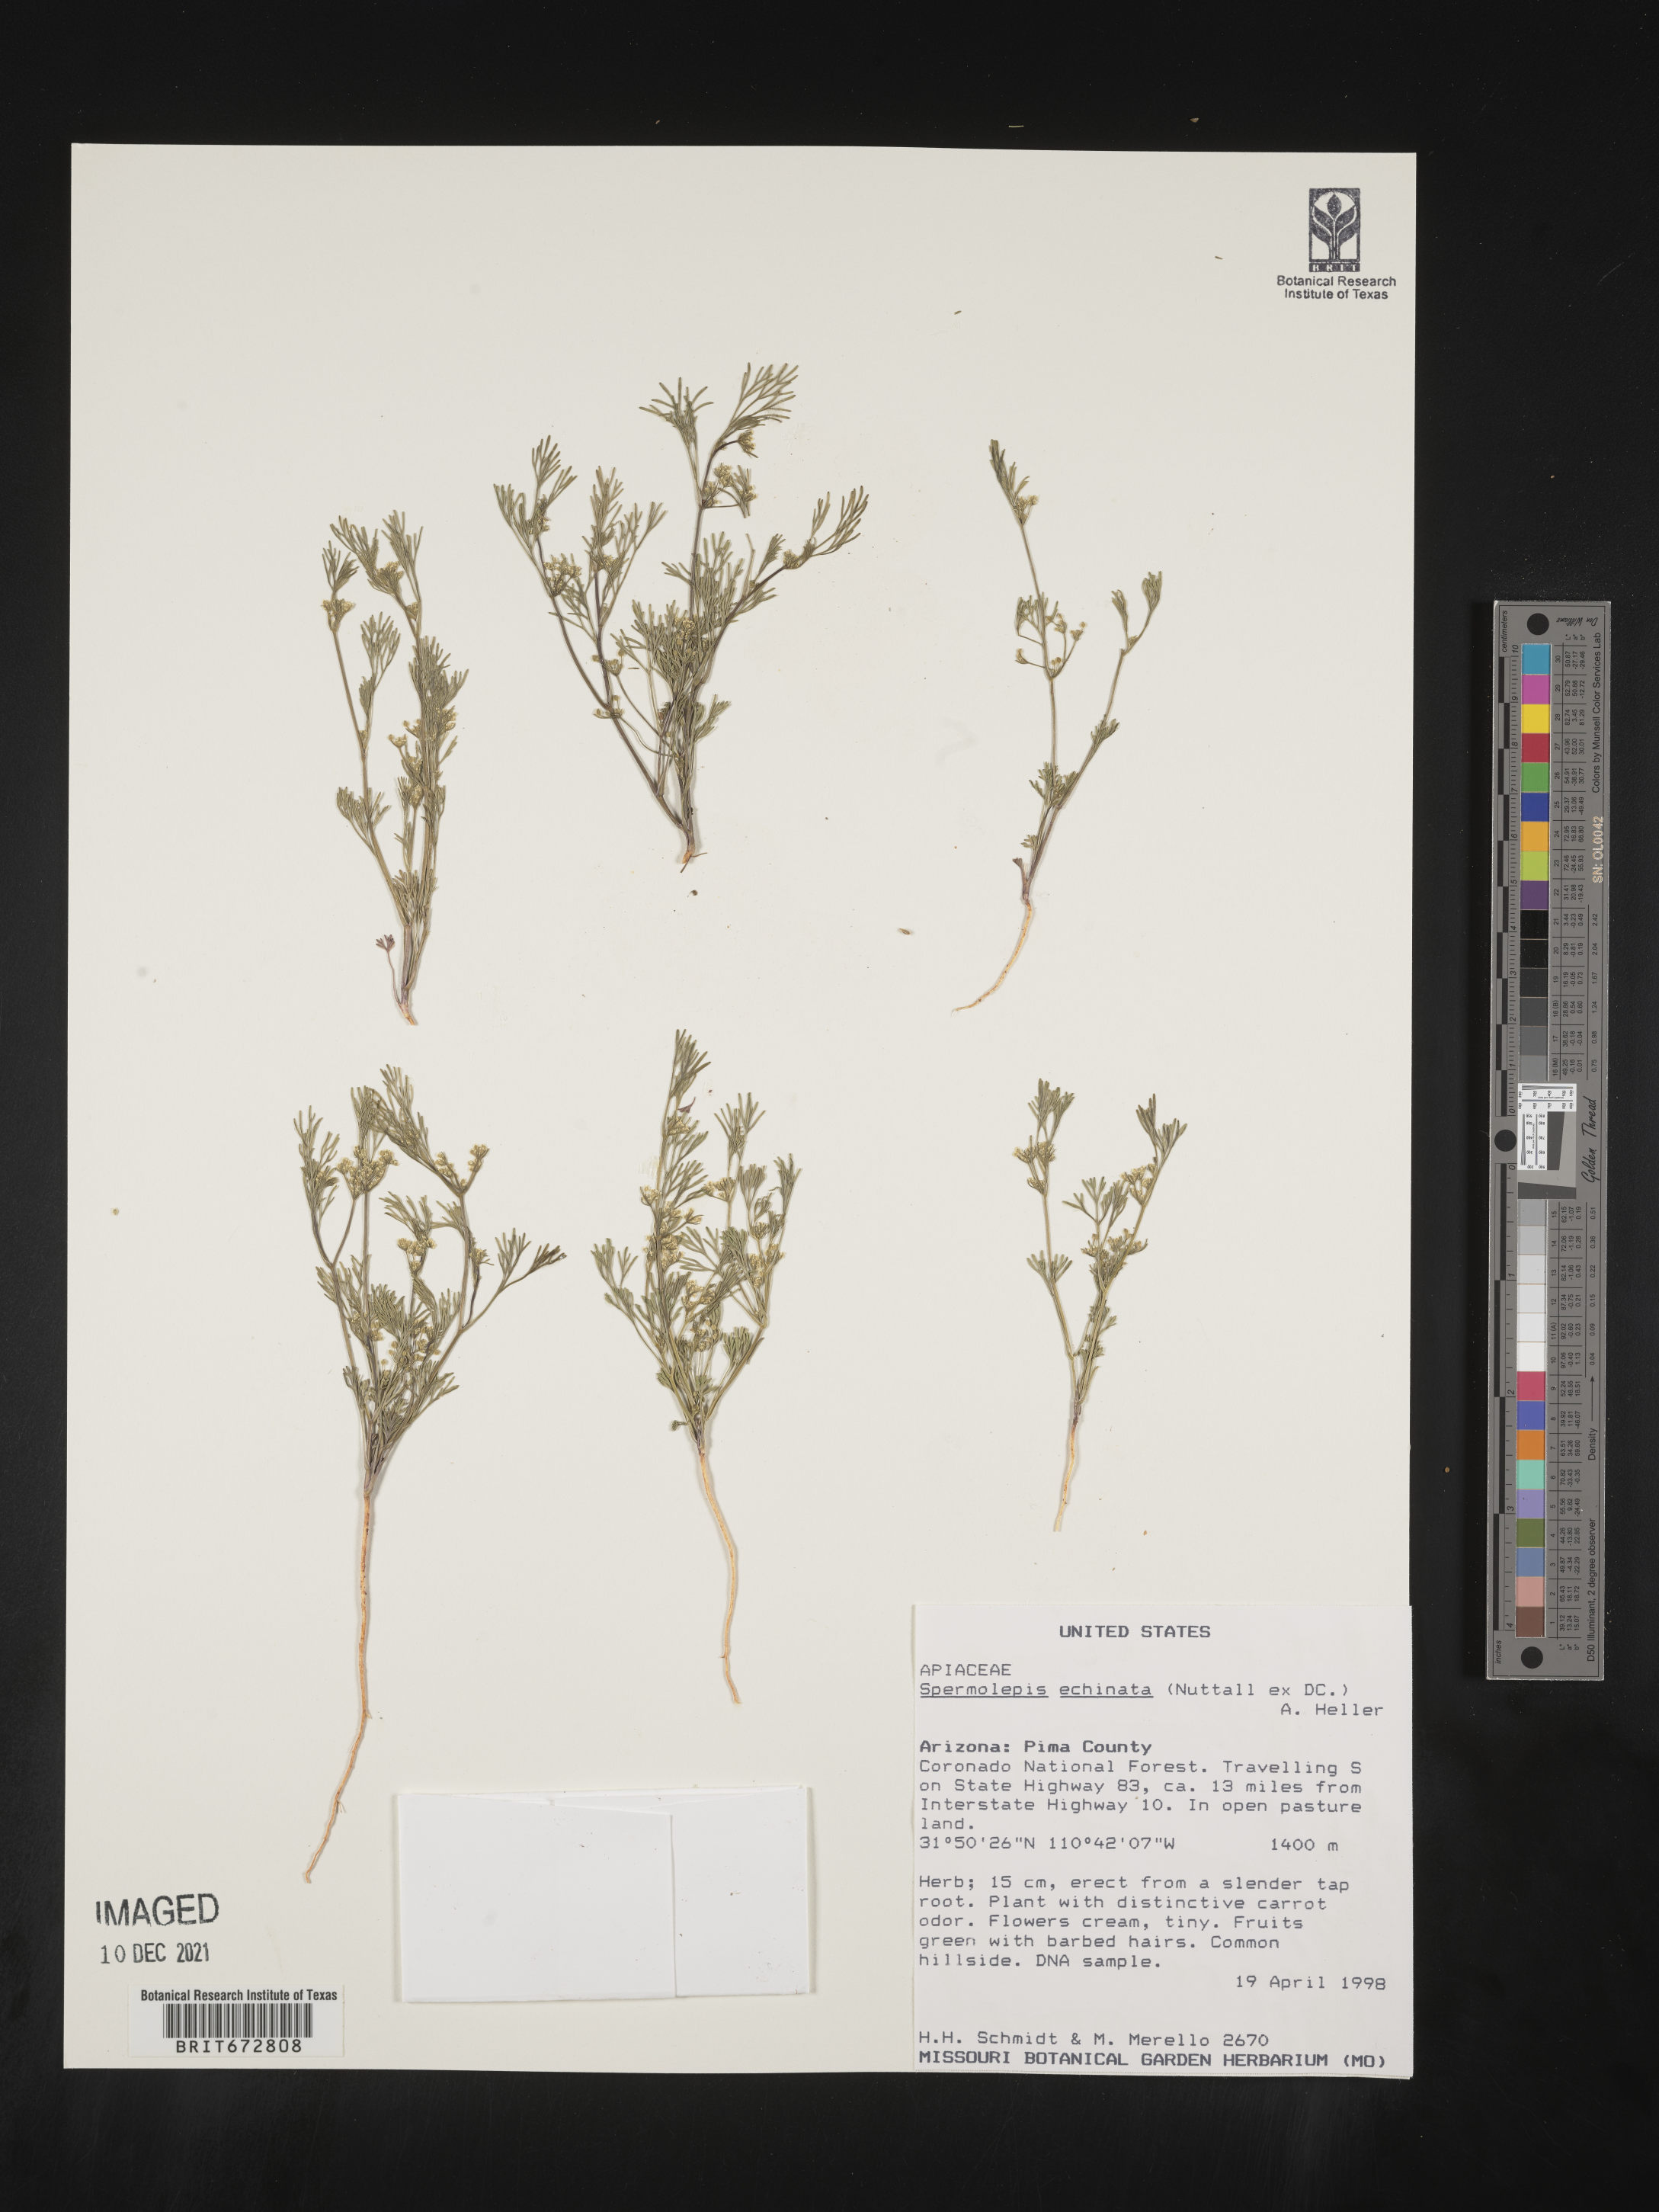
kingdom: Plantae
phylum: Tracheophyta
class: Magnoliopsida
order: Apiales
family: Apiaceae
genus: Spermolepis
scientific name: Spermolepis echinatus
